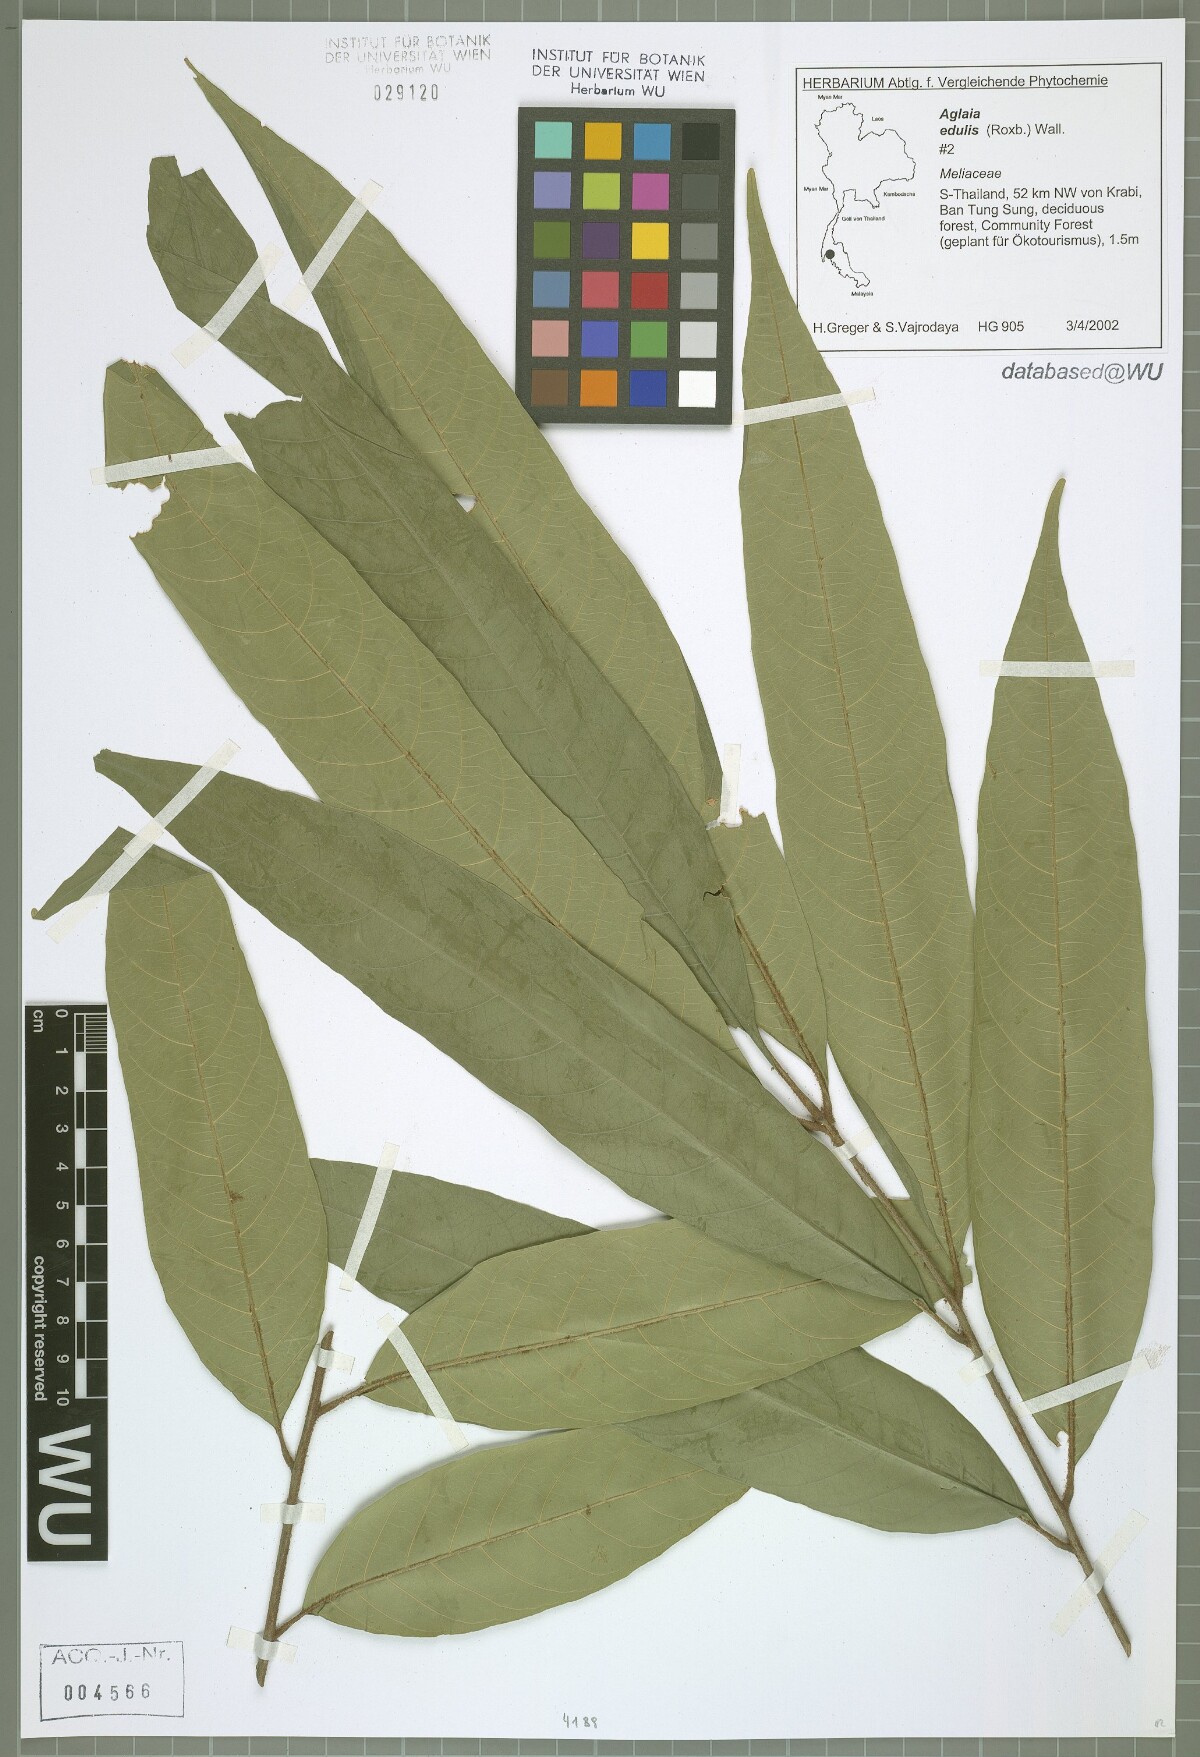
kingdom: Plantae
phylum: Tracheophyta
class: Magnoliopsida
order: Sapindales
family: Meliaceae
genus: Aglaia
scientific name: Aglaia edulis
